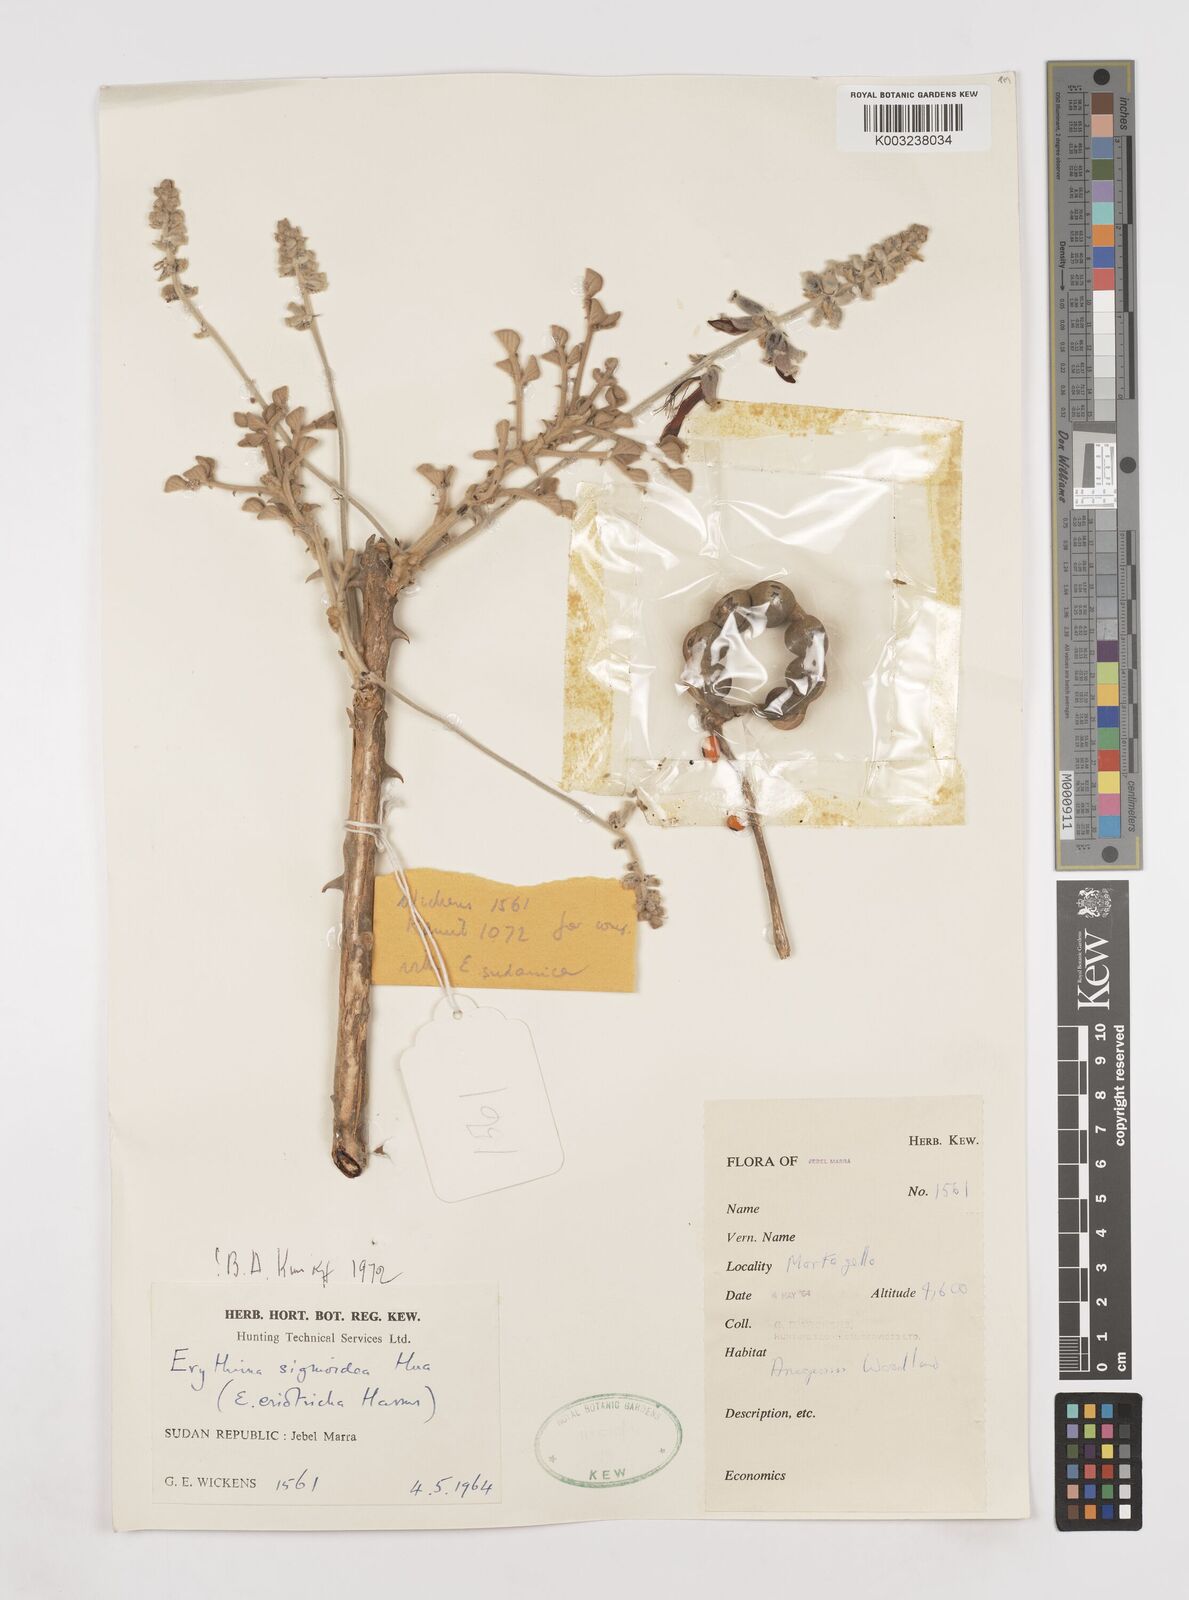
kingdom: Plantae
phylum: Tracheophyta
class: Magnoliopsida
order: Fabales
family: Fabaceae
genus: Erythrina
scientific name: Erythrina sigmoidea
